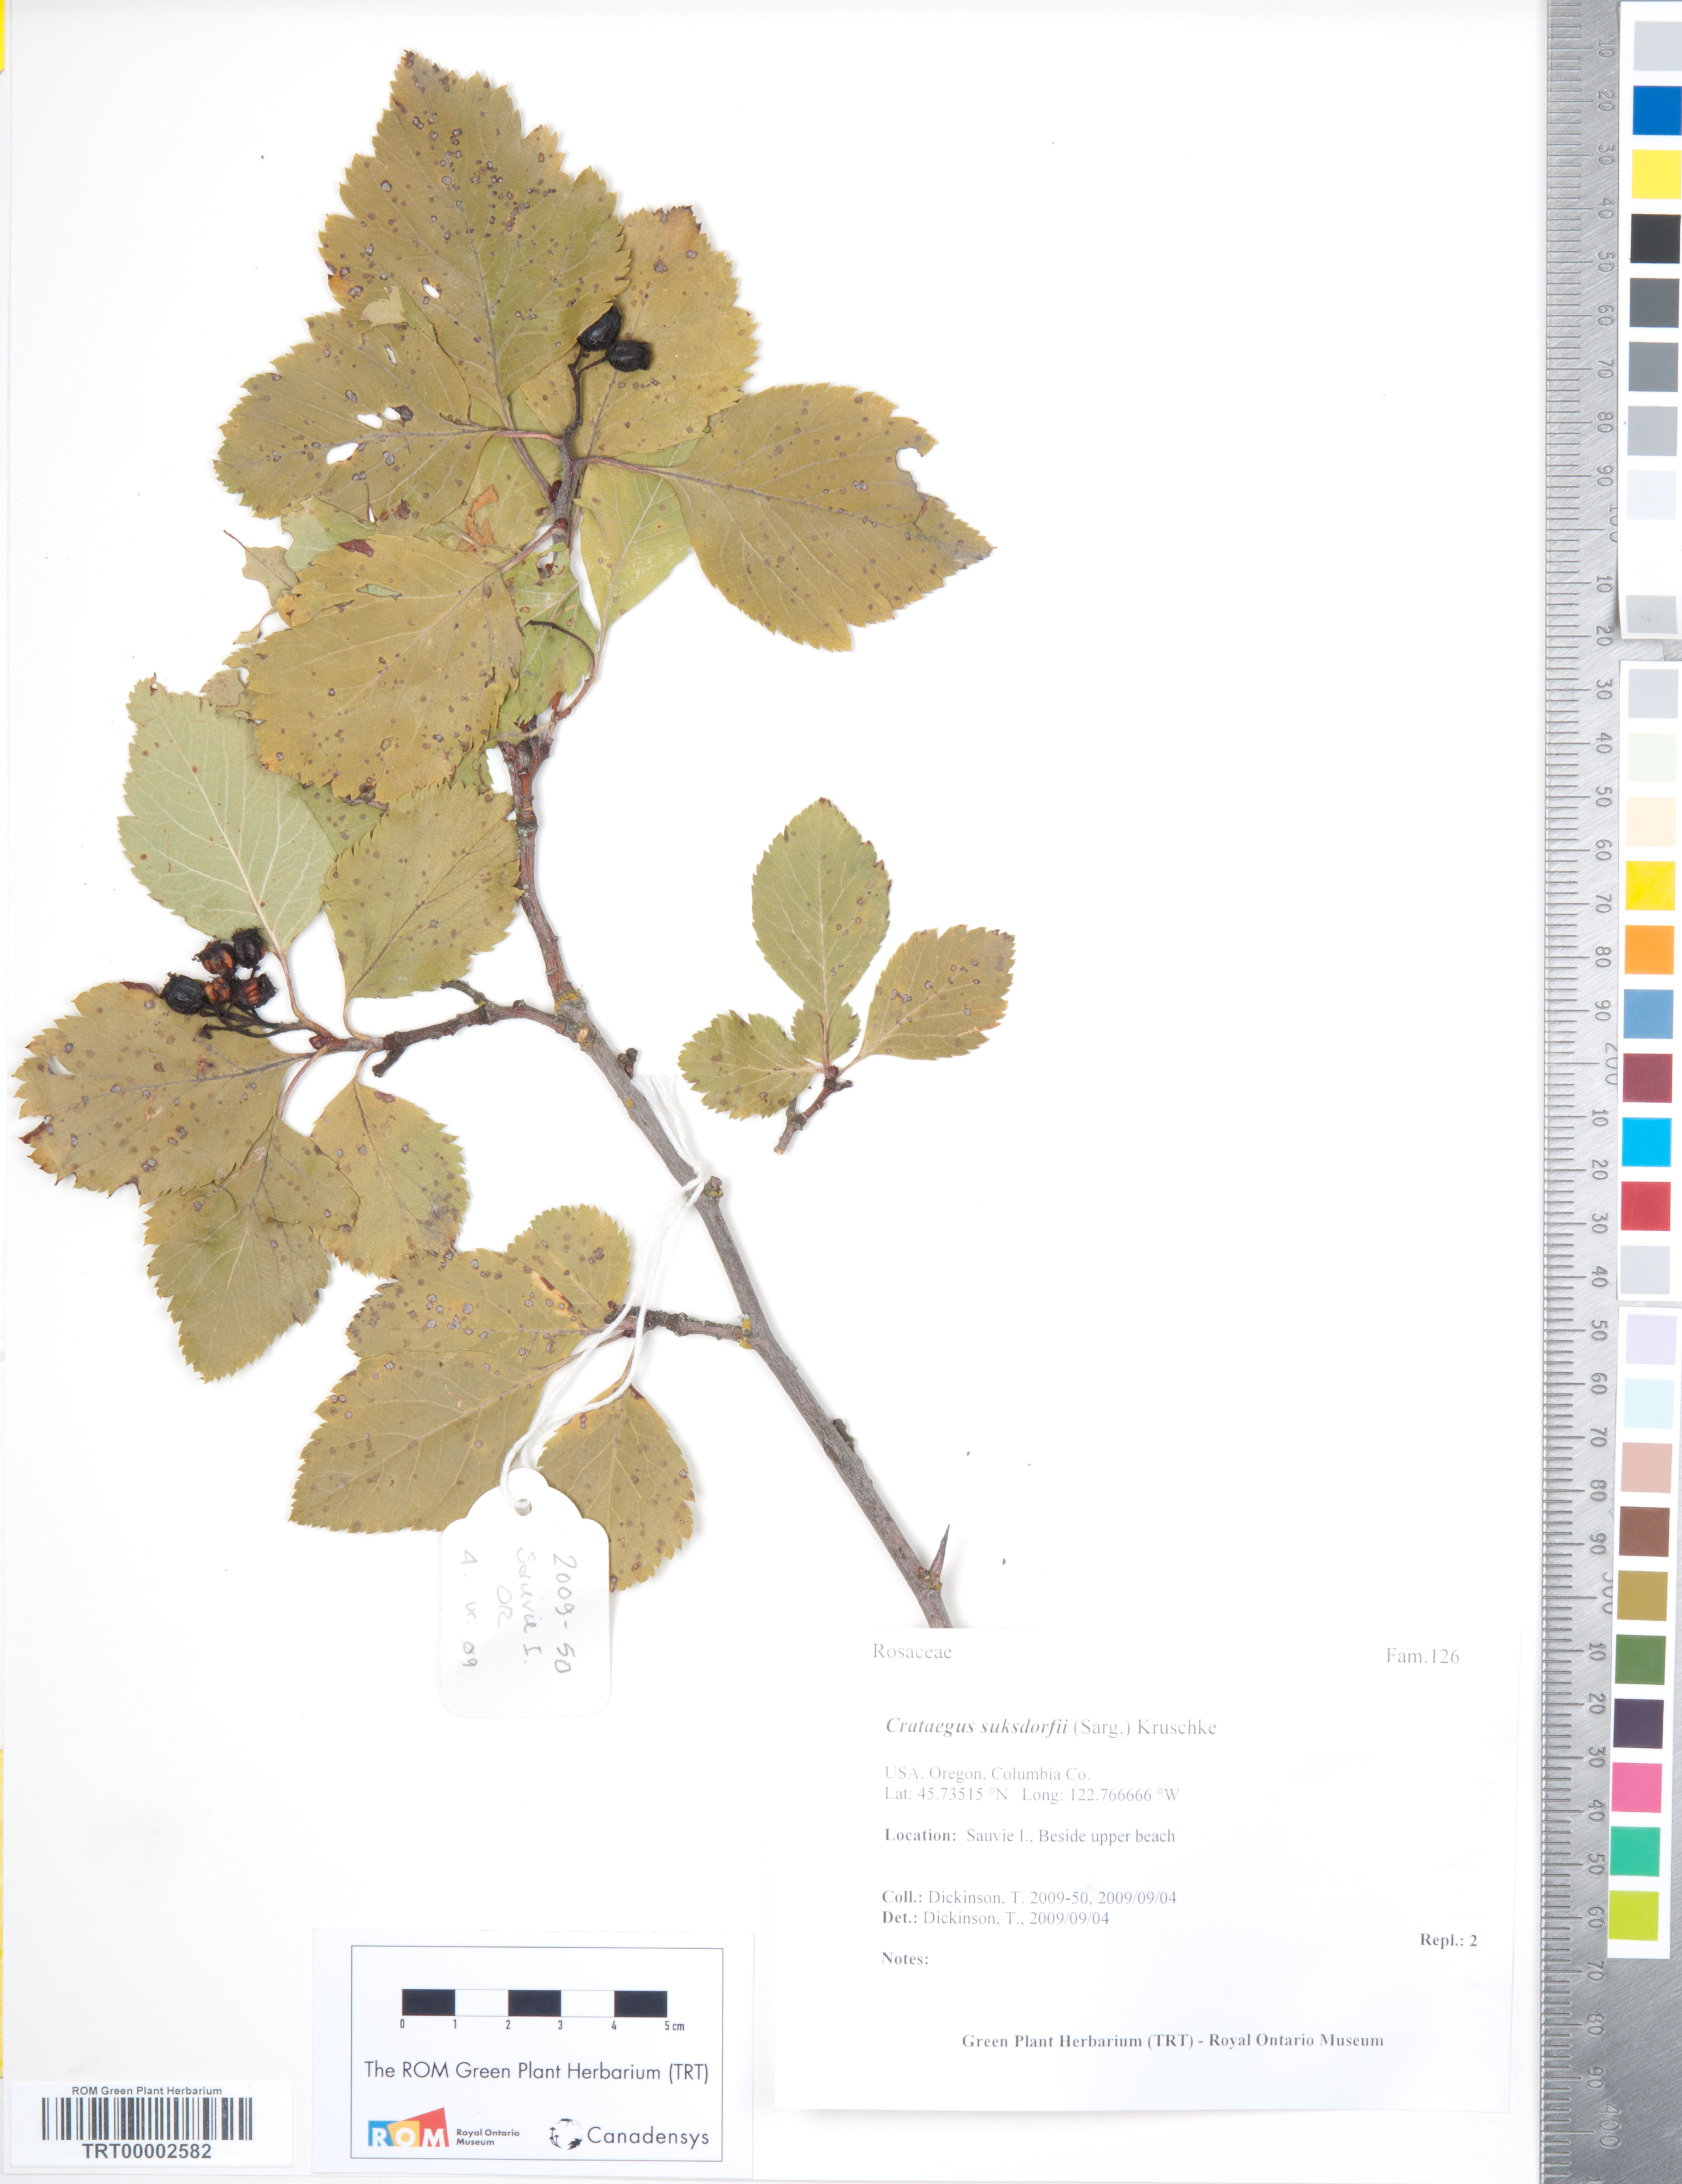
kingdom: Plantae
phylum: Tracheophyta
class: Magnoliopsida
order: Rosales
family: Rosaceae
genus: Crataegus
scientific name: Crataegus gaylussacia
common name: Huckleberry hawthorn
